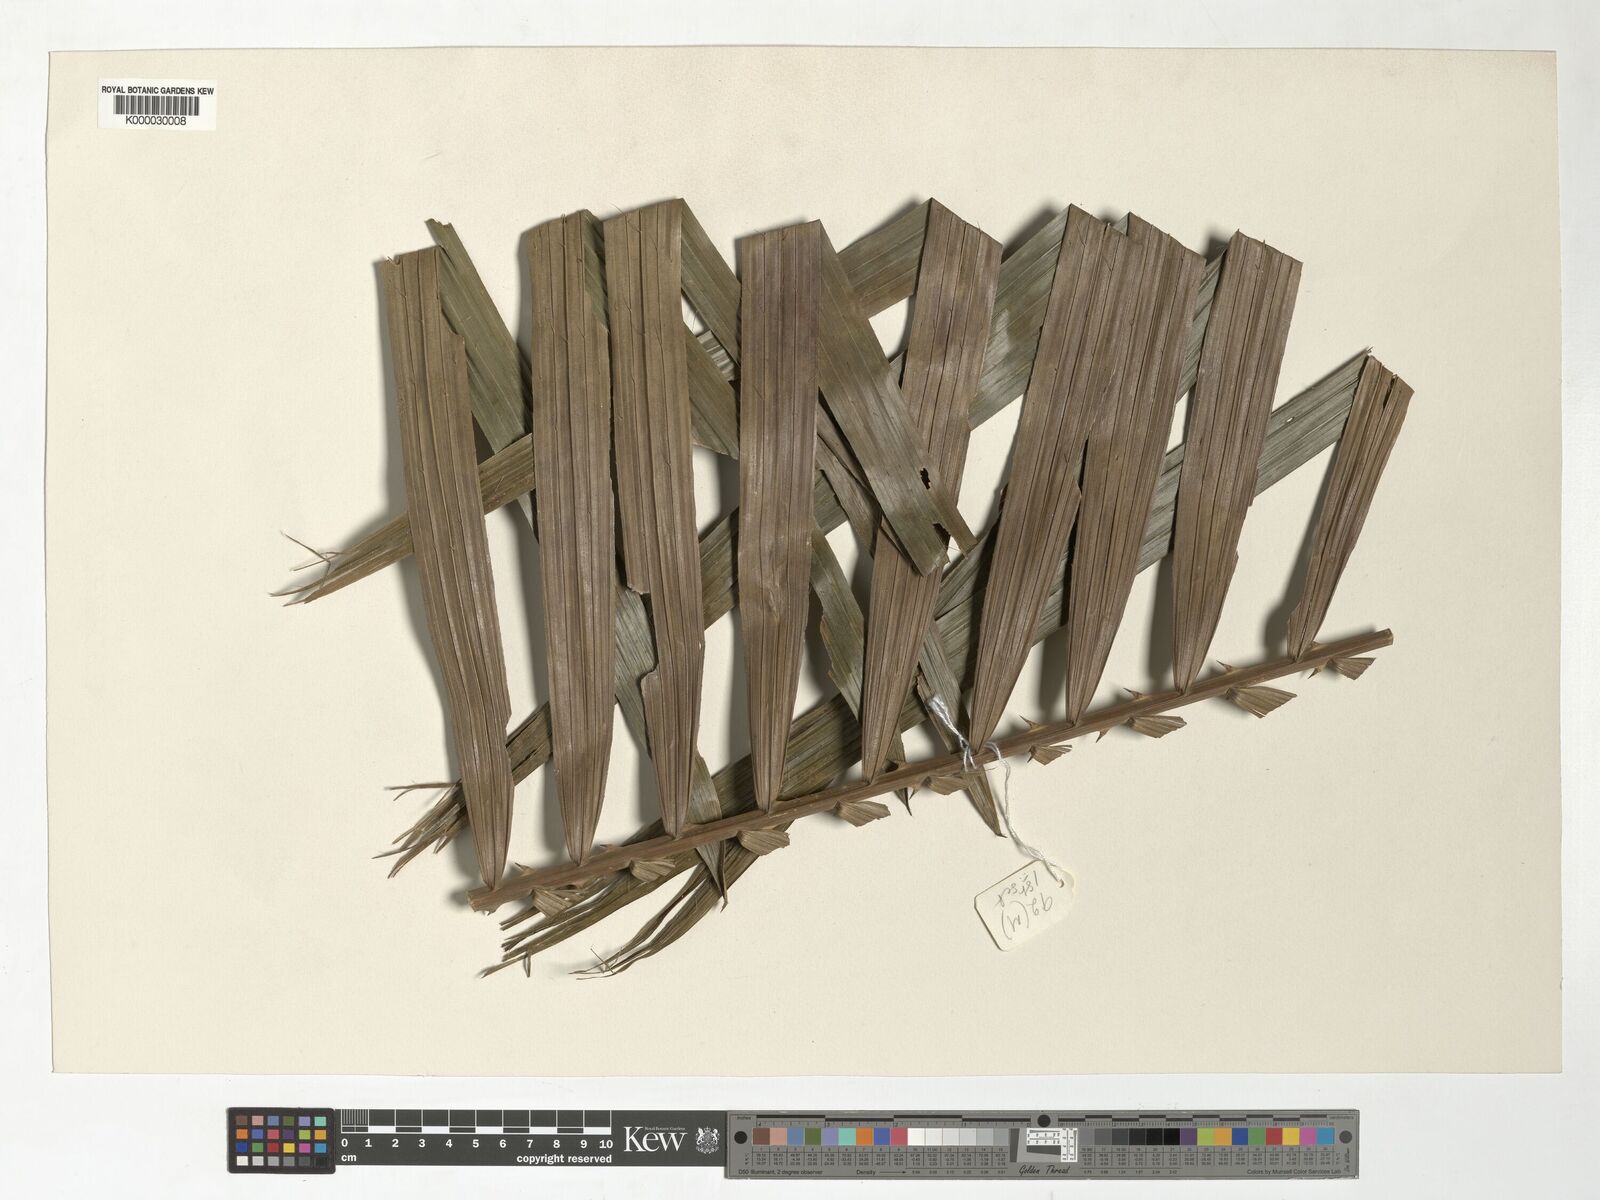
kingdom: Plantae
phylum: Tracheophyta
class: Liliopsida
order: Arecales
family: Arecaceae
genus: Calamus
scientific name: Calamus fertilis
